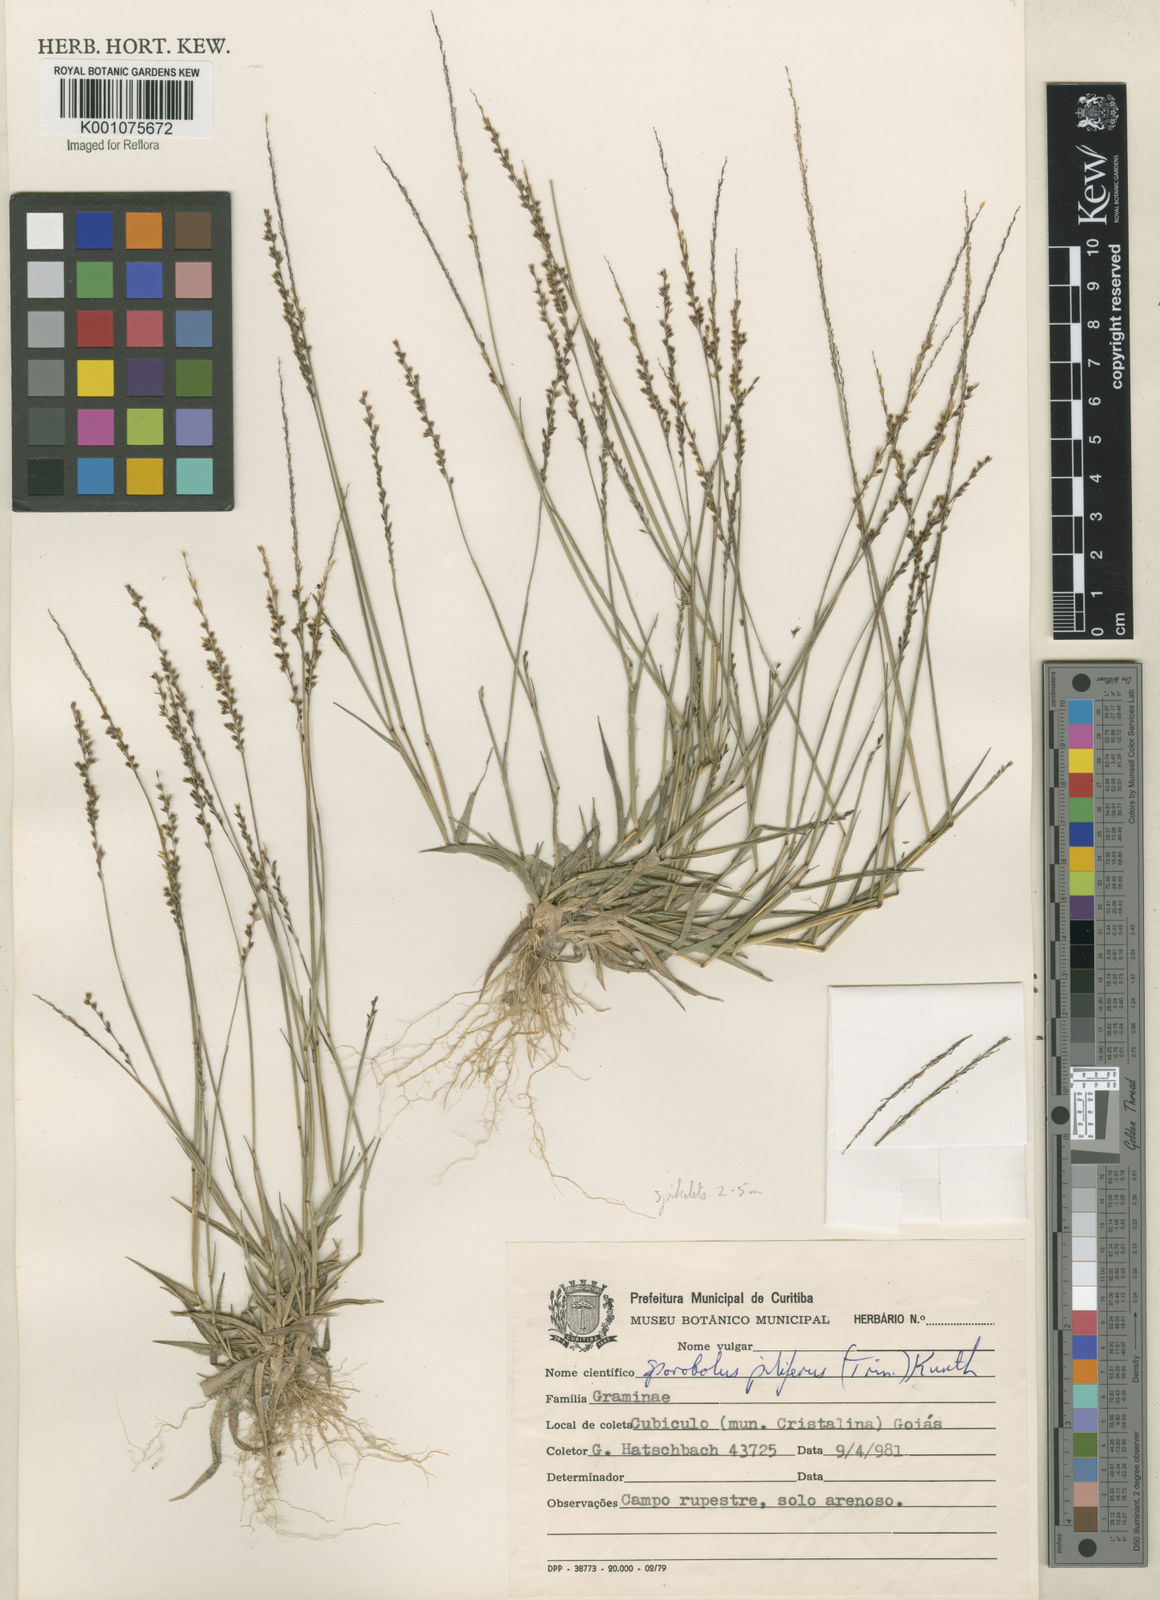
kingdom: Plantae
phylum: Tracheophyta
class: Liliopsida
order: Poales
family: Poaceae
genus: Sporobolus
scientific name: Sporobolus pilifer
